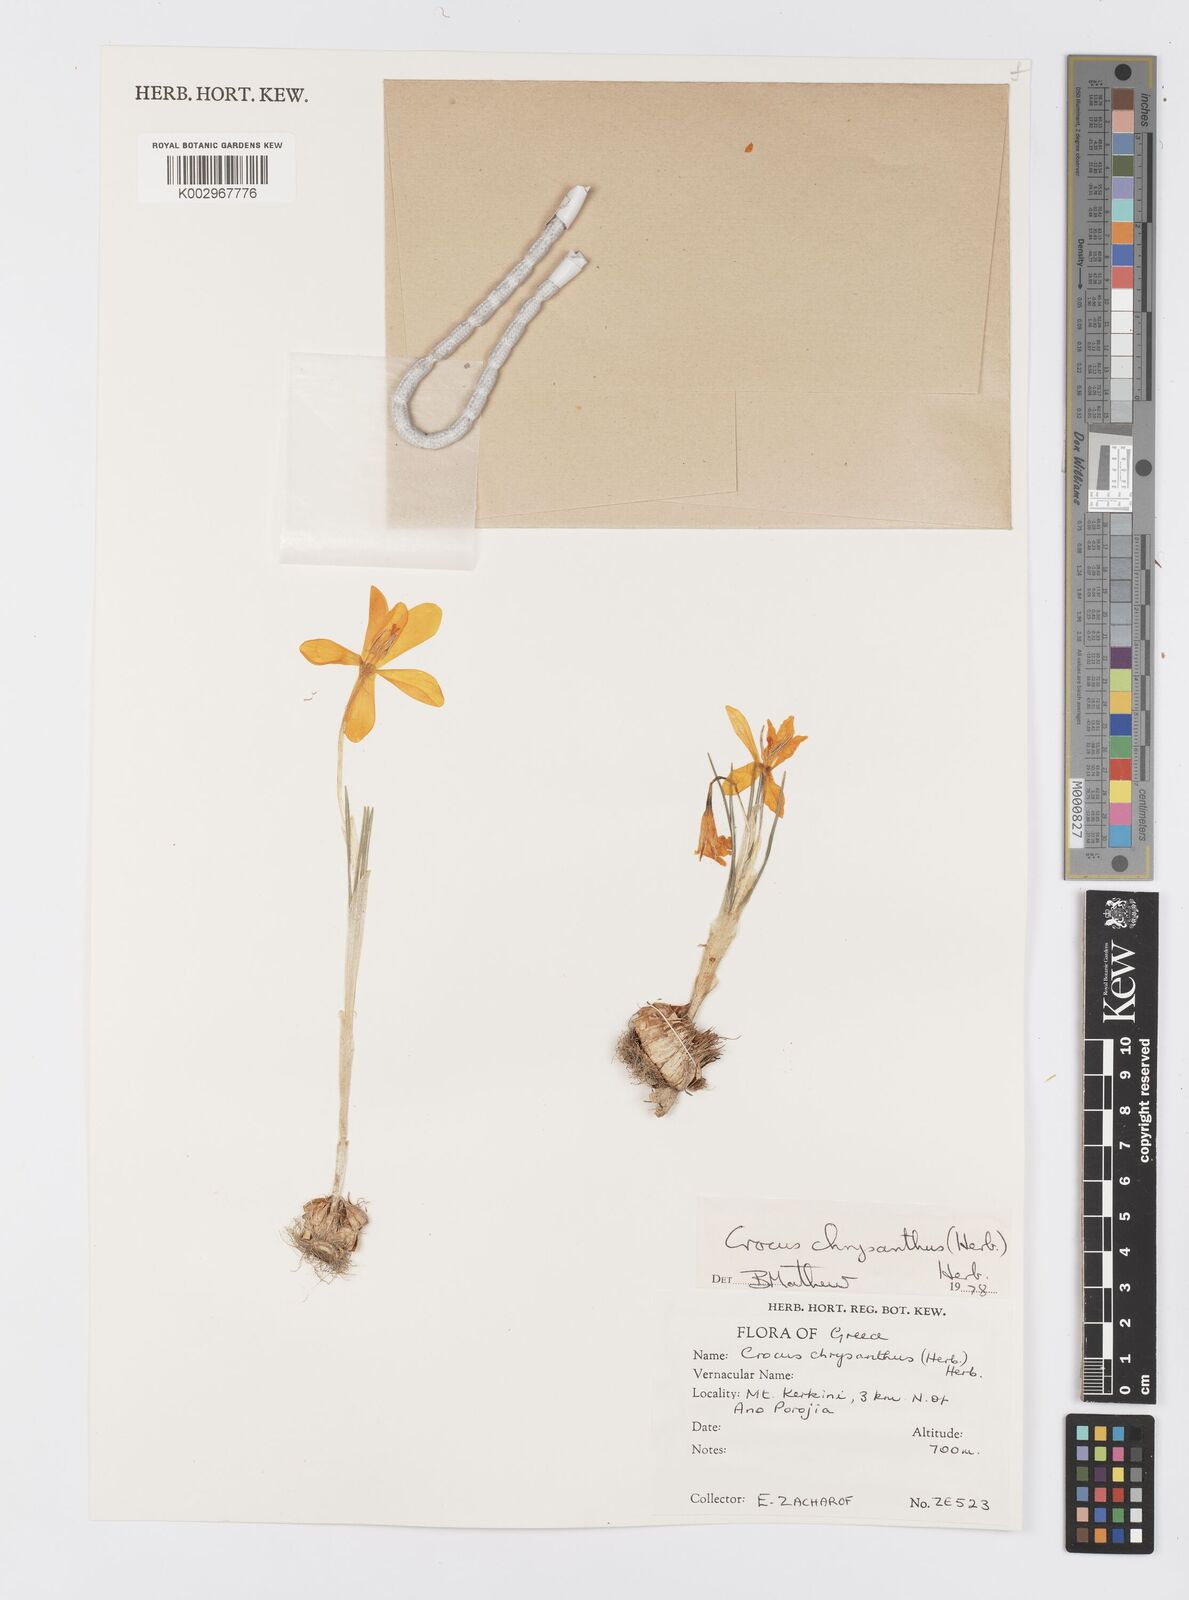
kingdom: Plantae
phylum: Tracheophyta
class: Liliopsida
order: Asparagales
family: Iridaceae
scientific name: Iridaceae
